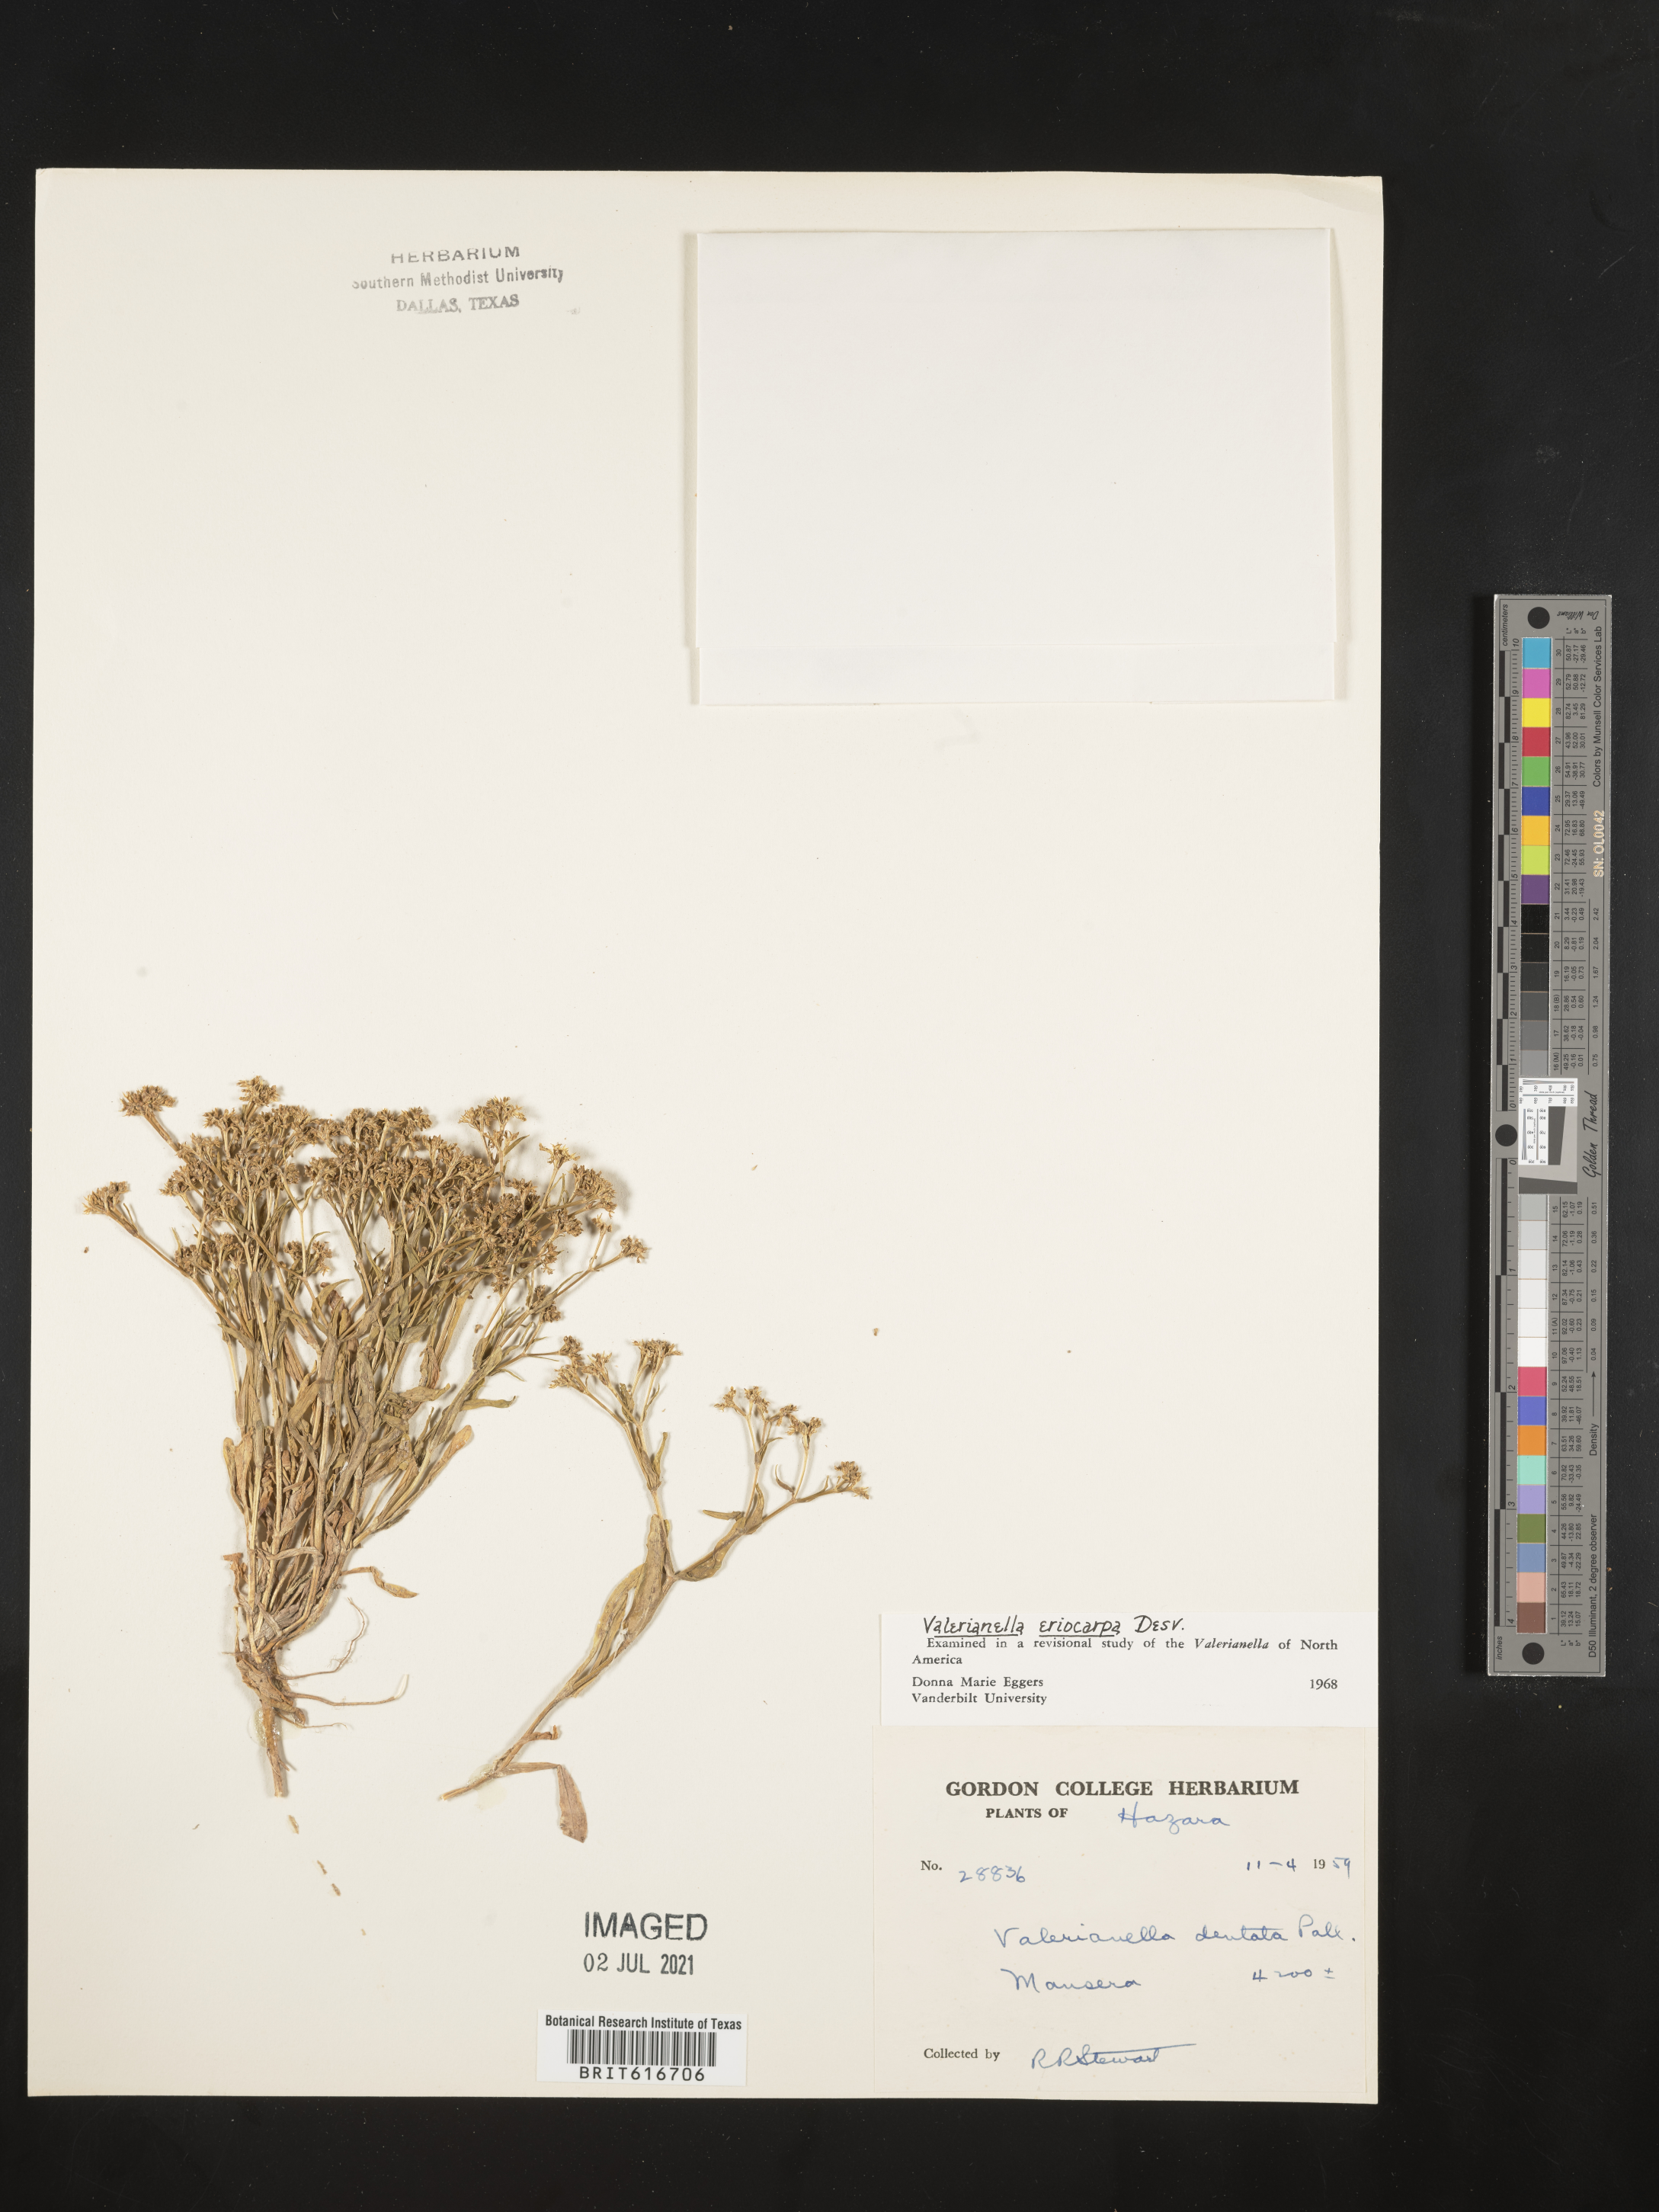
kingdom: Plantae
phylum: Tracheophyta
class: Magnoliopsida
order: Dipsacales
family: Caprifoliaceae
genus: Valerianella
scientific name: Valerianella eriocarpa
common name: Hairy-fruited cornsalad
